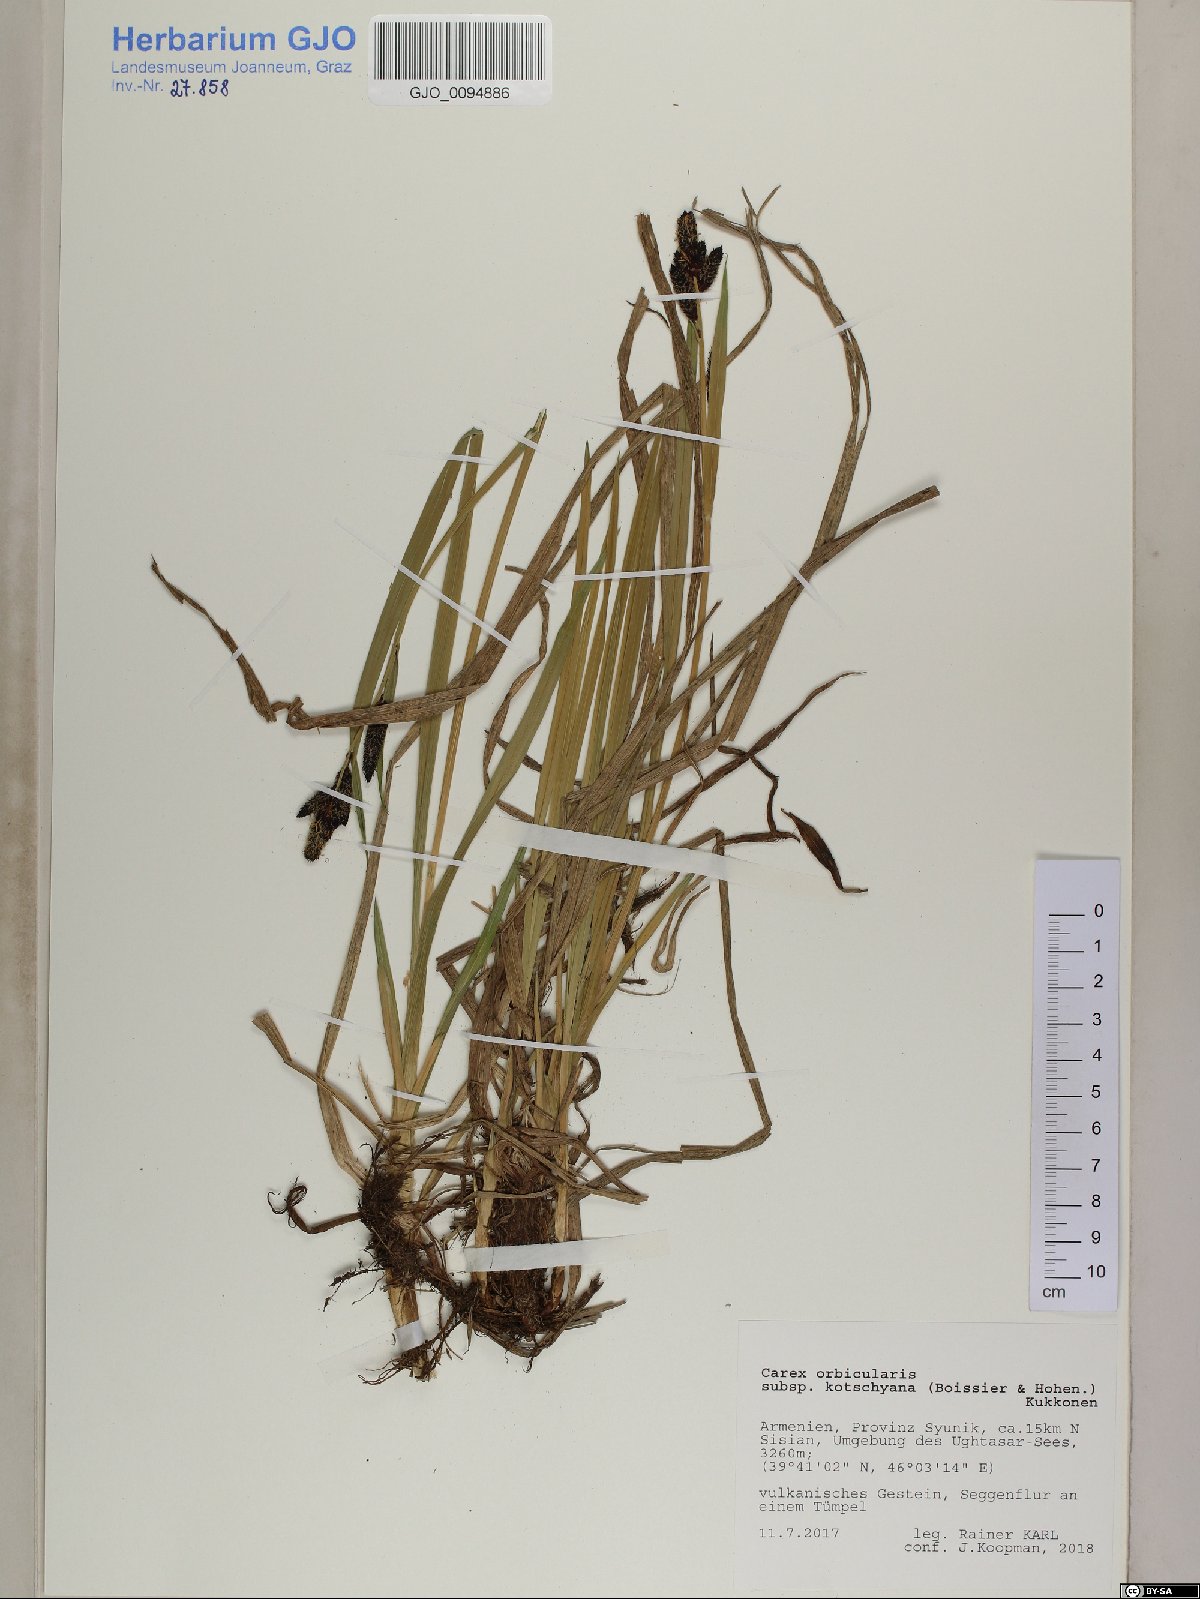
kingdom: Plantae
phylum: Tracheophyta
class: Liliopsida
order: Poales
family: Cyperaceae
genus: Carex
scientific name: Carex orbicularis
